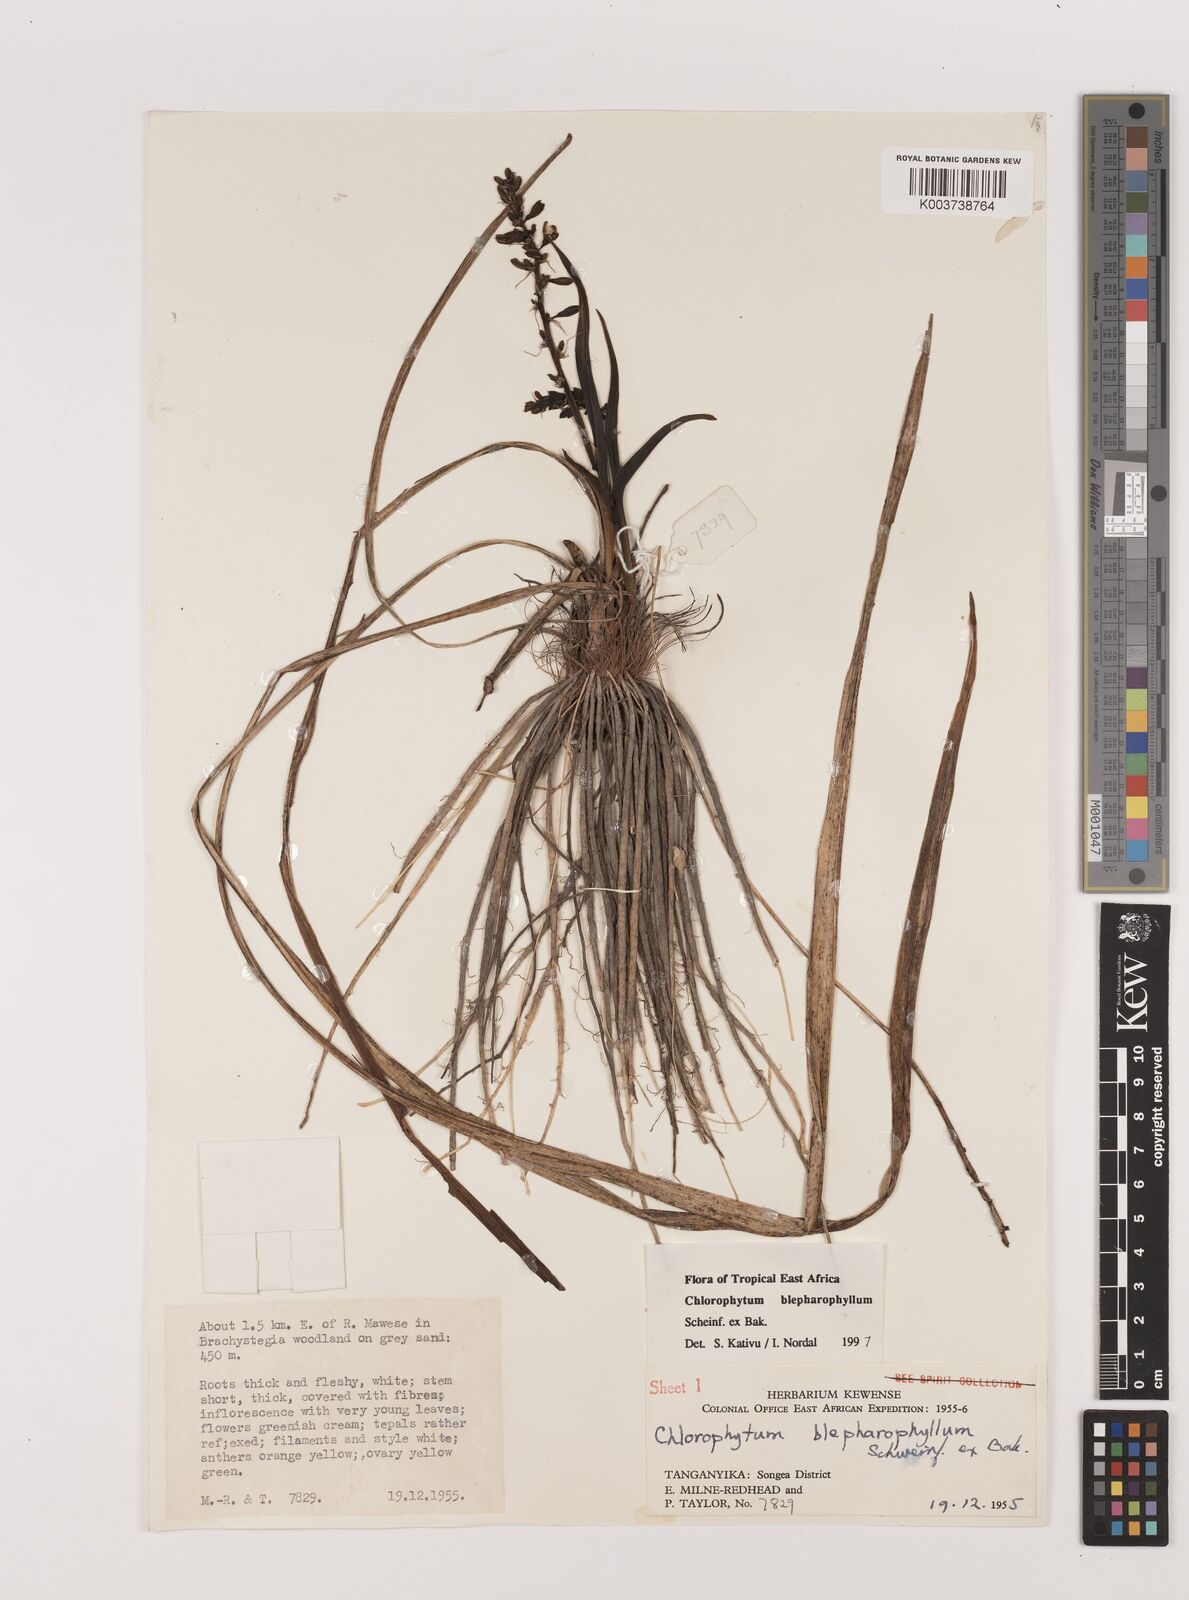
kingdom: Plantae
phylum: Tracheophyta
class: Liliopsida
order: Asparagales
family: Asparagaceae
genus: Chlorophytum
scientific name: Chlorophytum blepharophyllum
